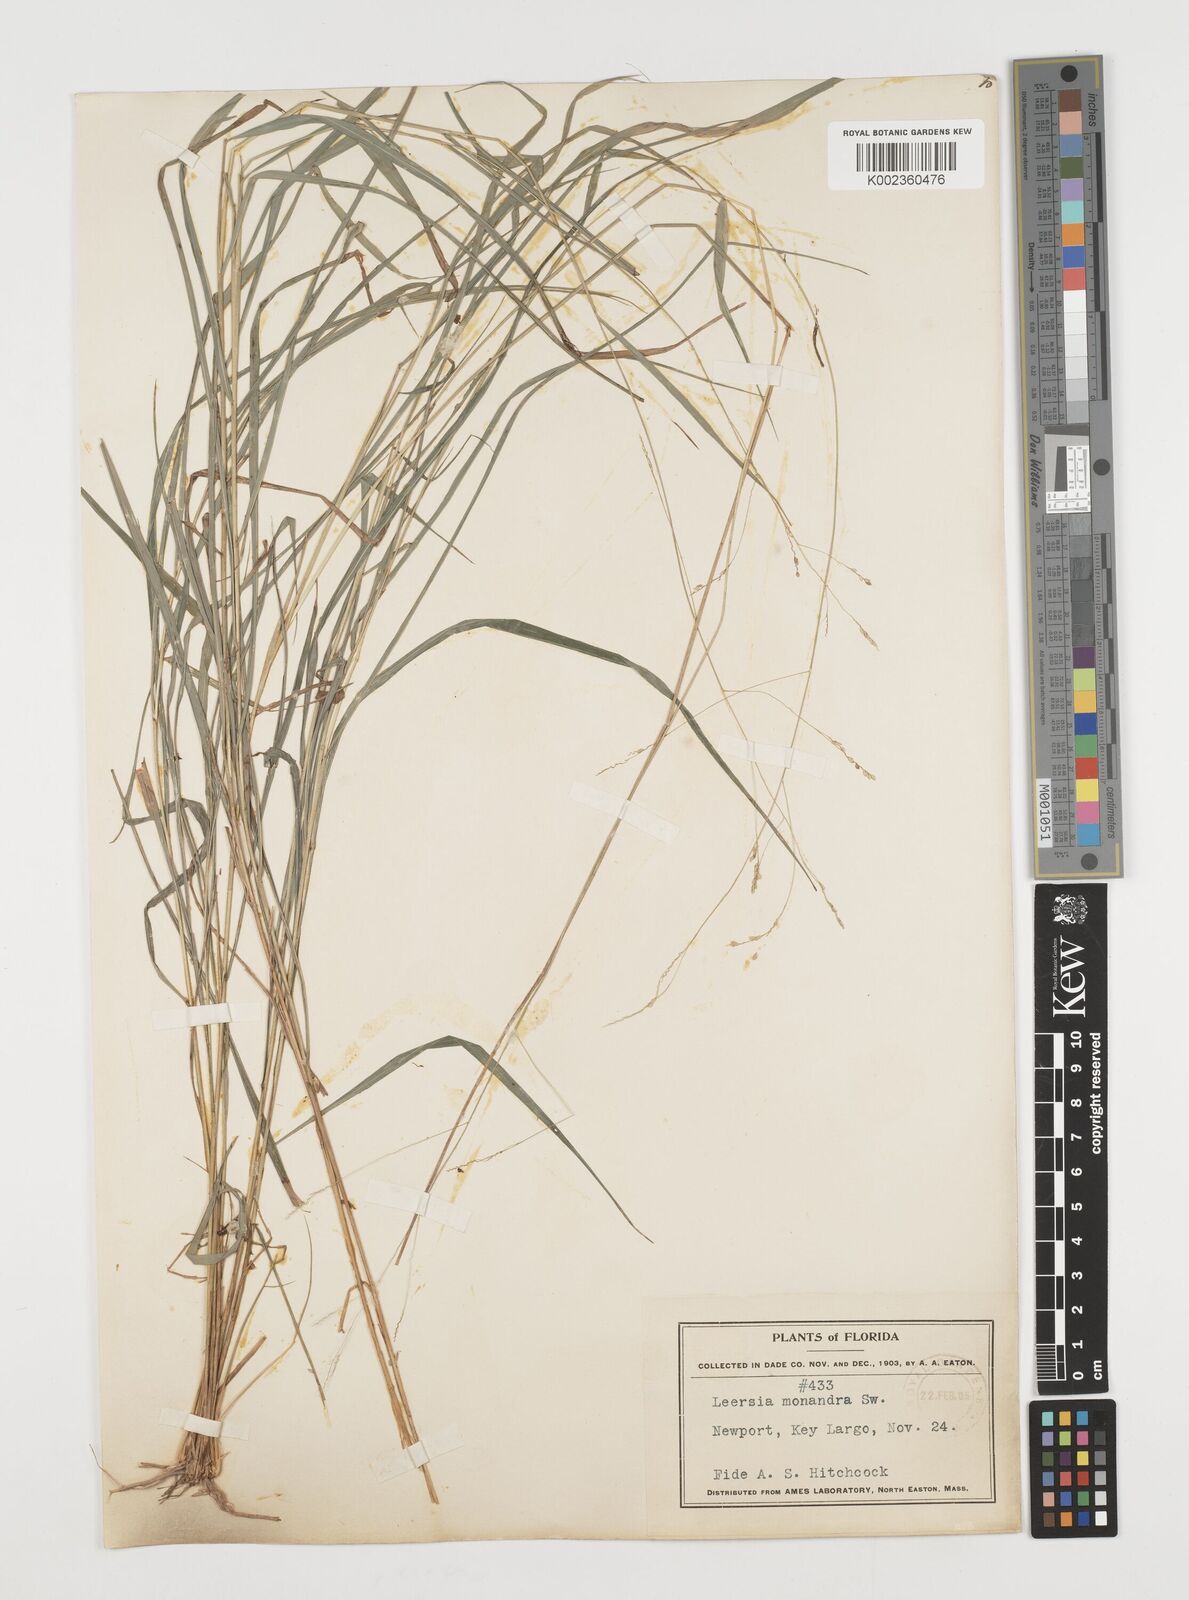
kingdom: Plantae
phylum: Tracheophyta
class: Liliopsida
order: Poales
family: Poaceae
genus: Leersia
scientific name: Leersia monandra
